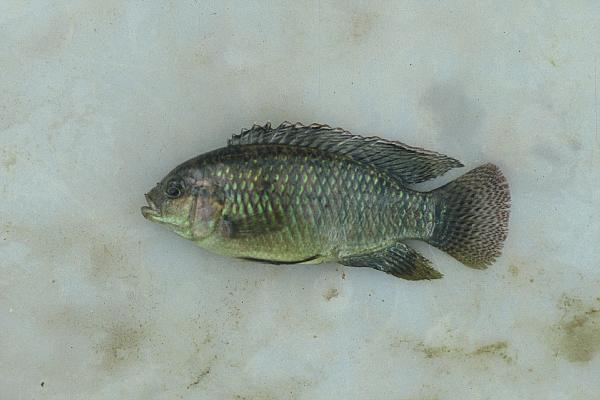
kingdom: Animalia
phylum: Chordata
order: Perciformes
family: Cichlidae
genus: Tilapia
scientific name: Tilapia ruweti
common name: Okavango tilapia
